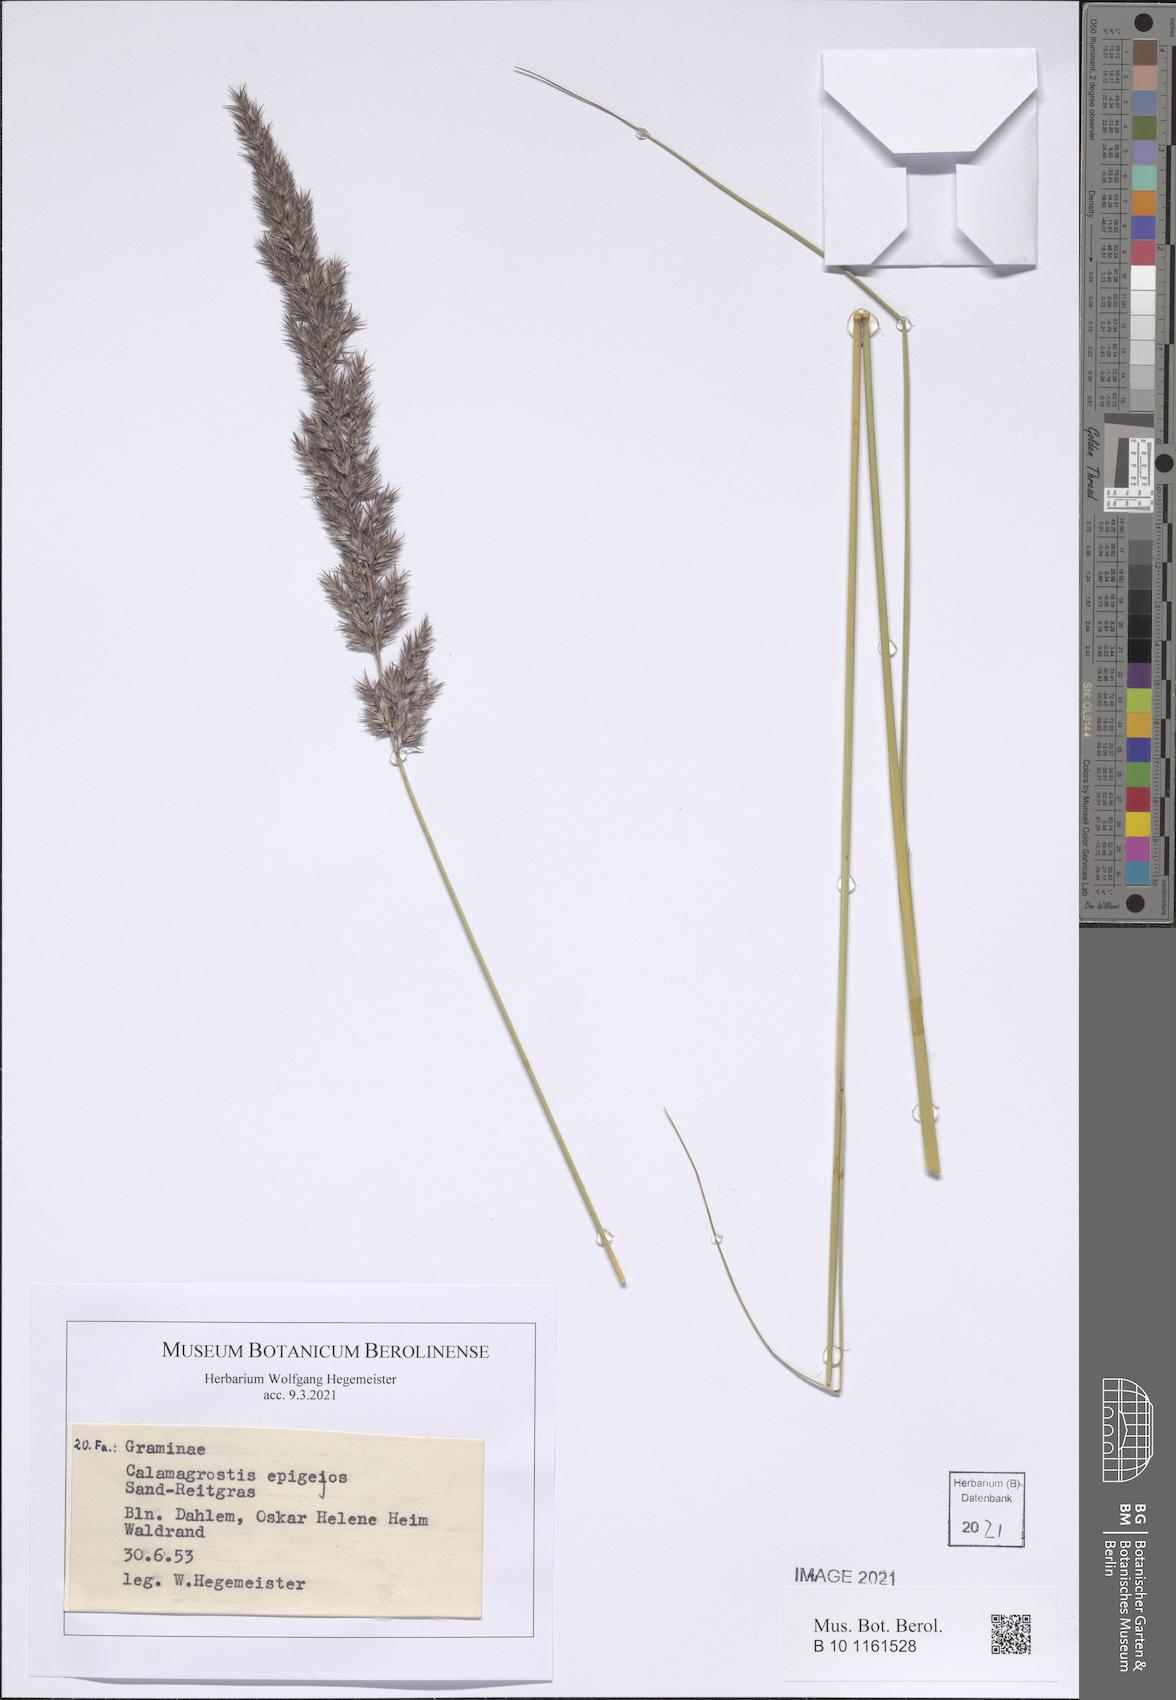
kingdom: Plantae
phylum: Tracheophyta
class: Liliopsida
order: Poales
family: Poaceae
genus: Calamagrostis
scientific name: Calamagrostis epigejos
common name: Wood small-reed
